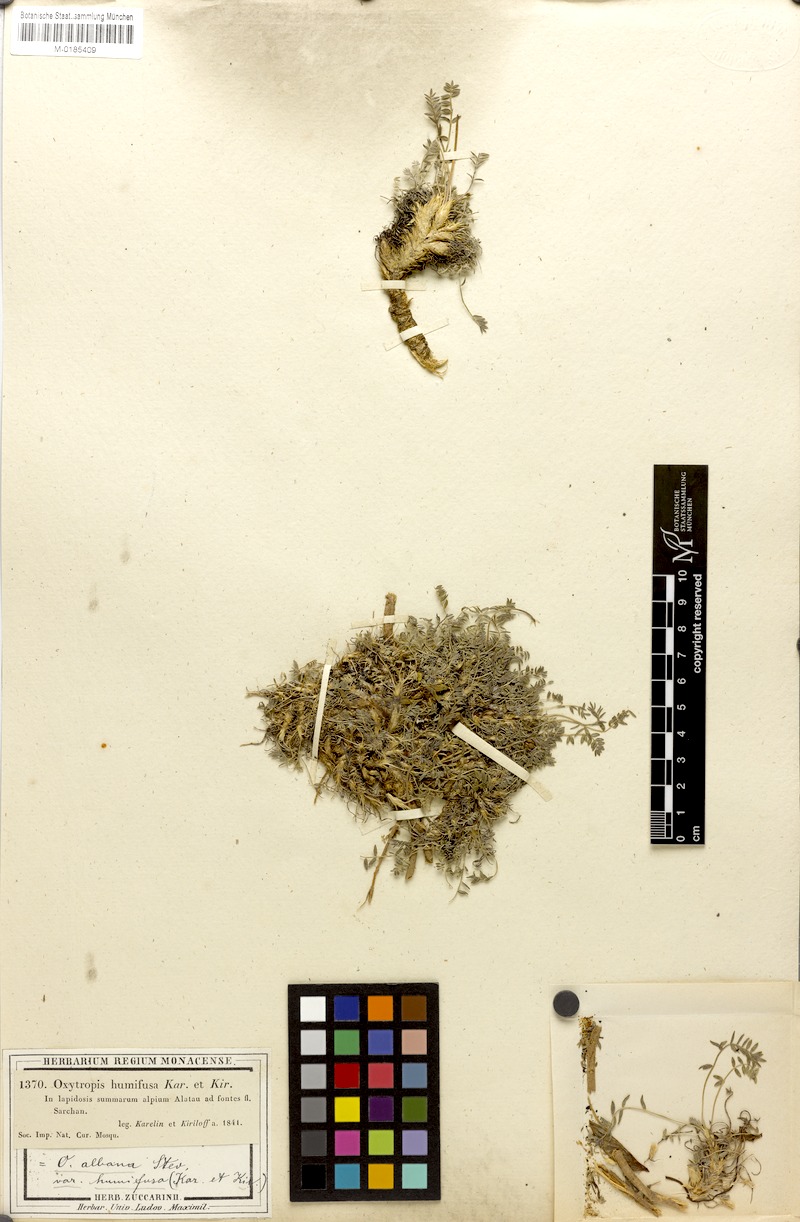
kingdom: Plantae
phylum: Tracheophyta
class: Magnoliopsida
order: Fabales
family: Fabaceae
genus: Oxytropis
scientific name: Oxytropis humifusa
